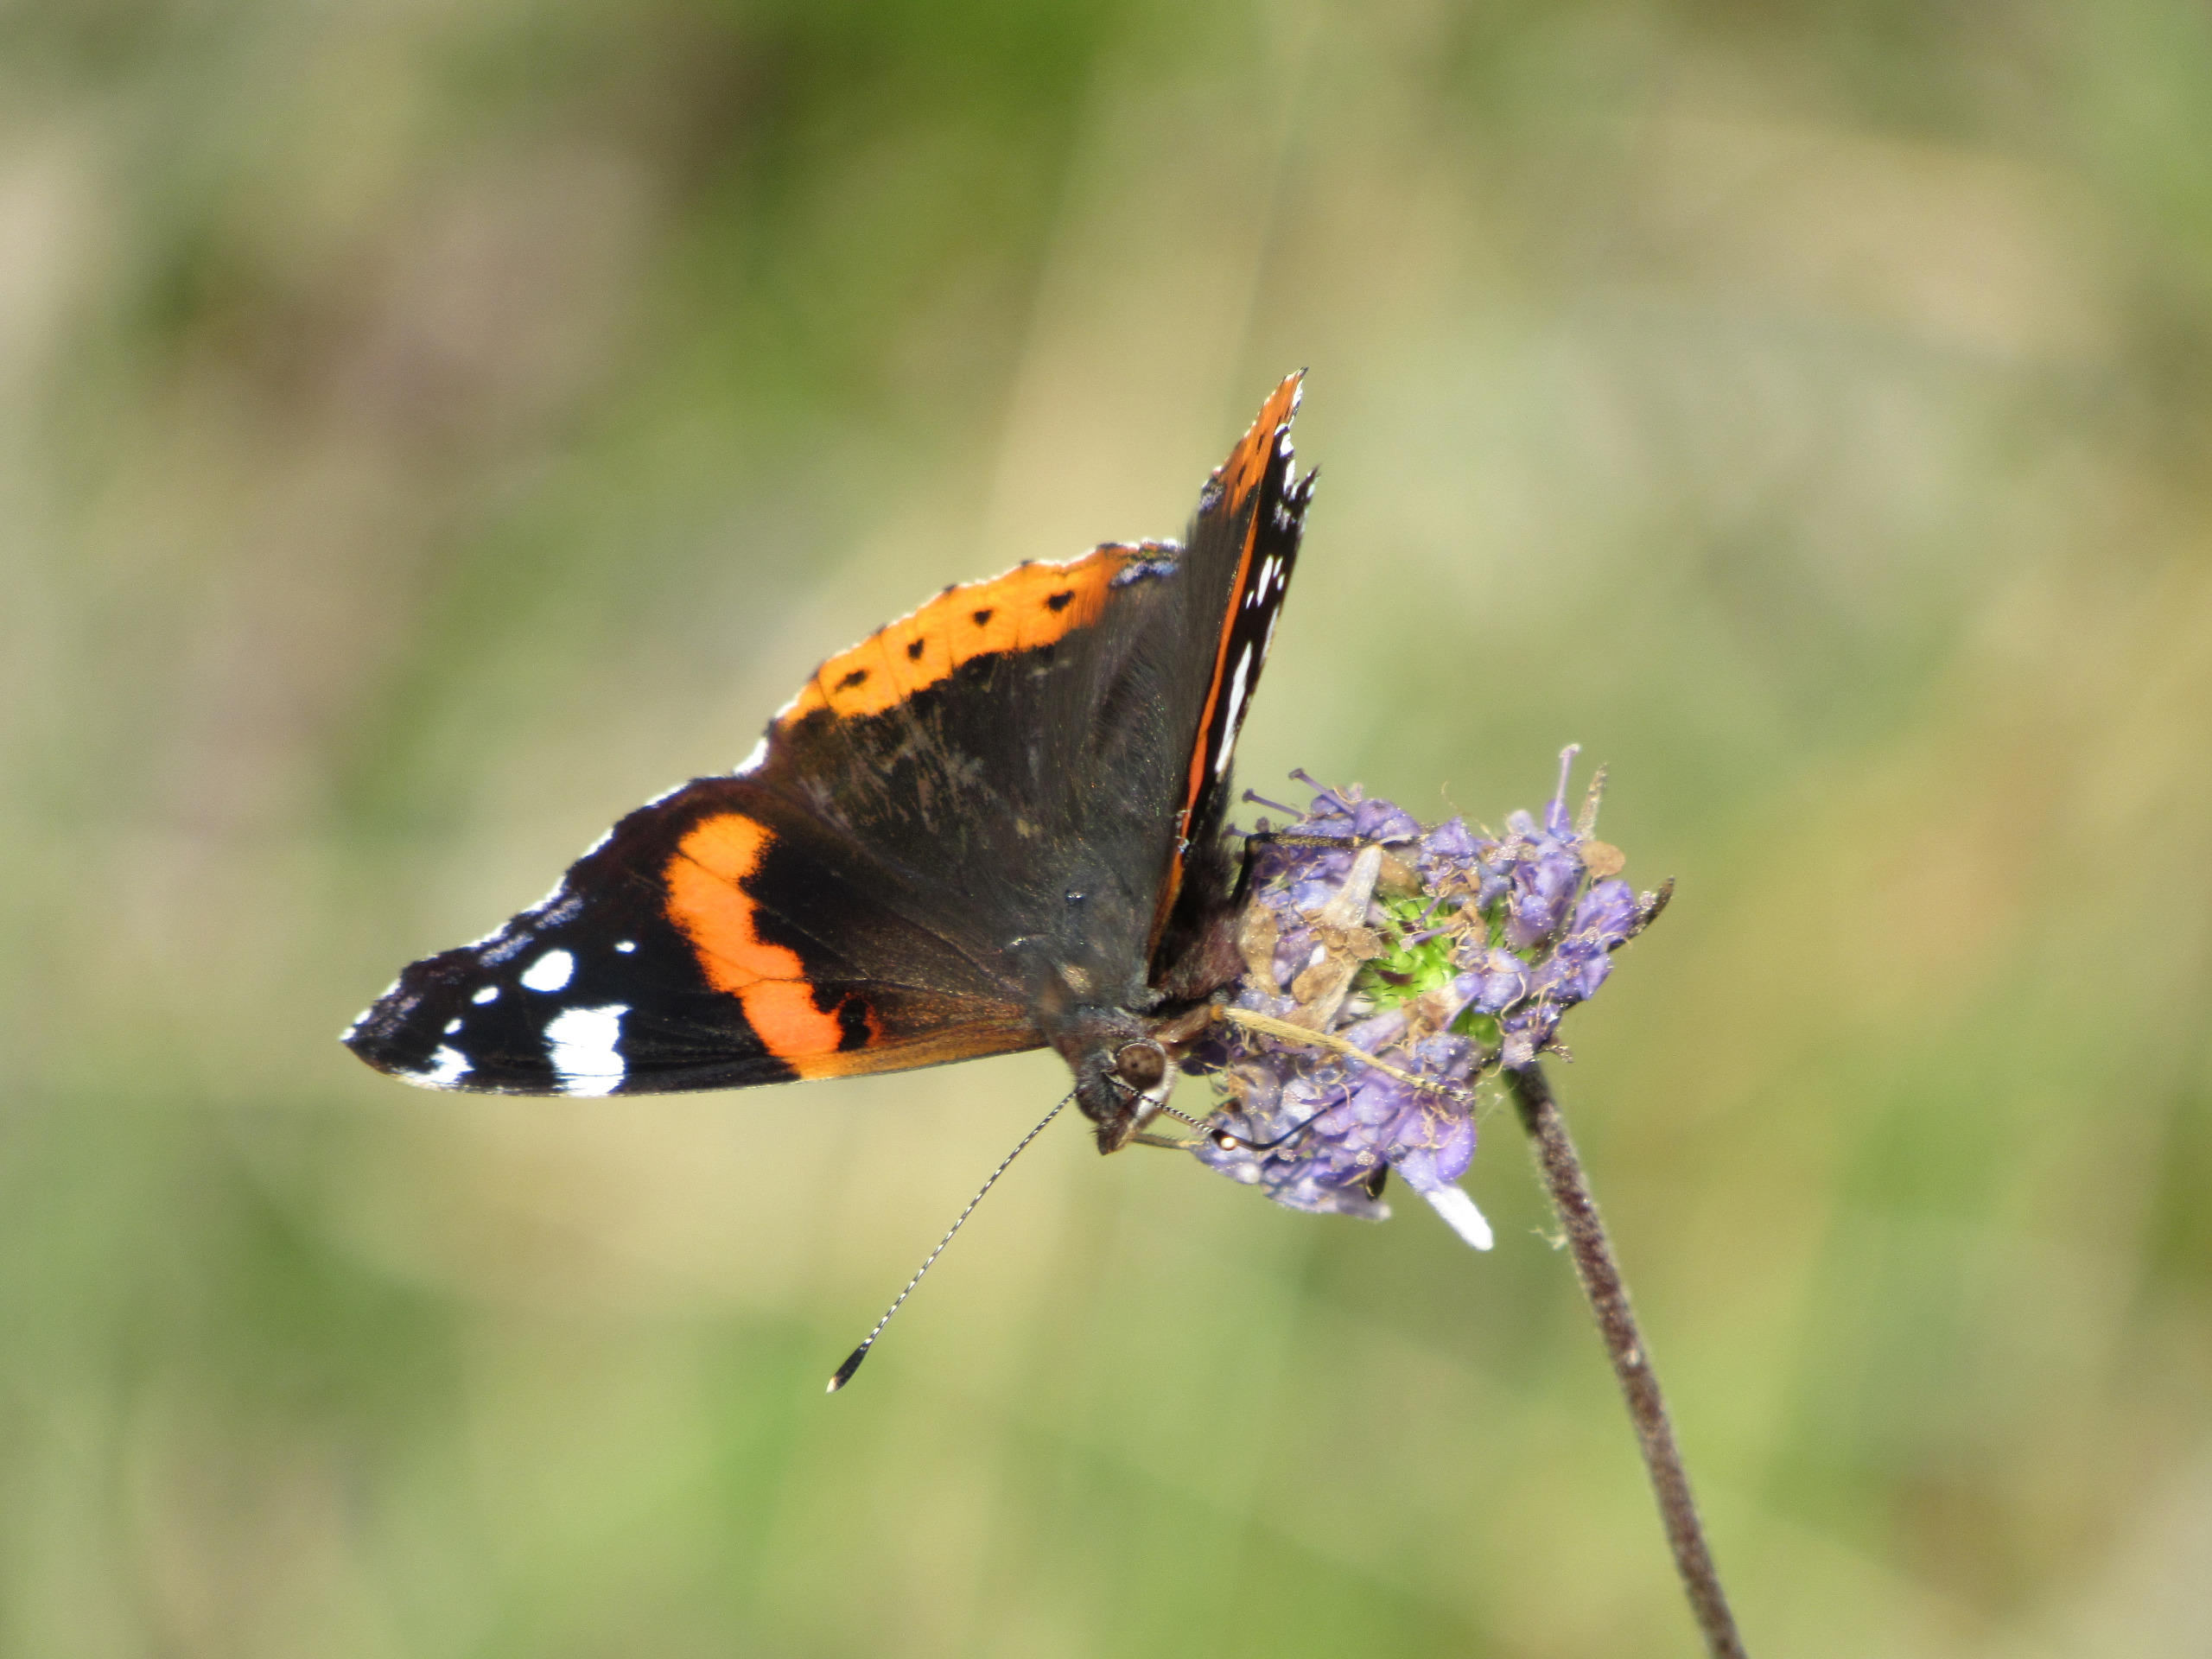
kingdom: Animalia
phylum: Arthropoda
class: Insecta
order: Lepidoptera
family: Nymphalidae
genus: Vanessa
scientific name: Vanessa atalanta
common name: Admiral
